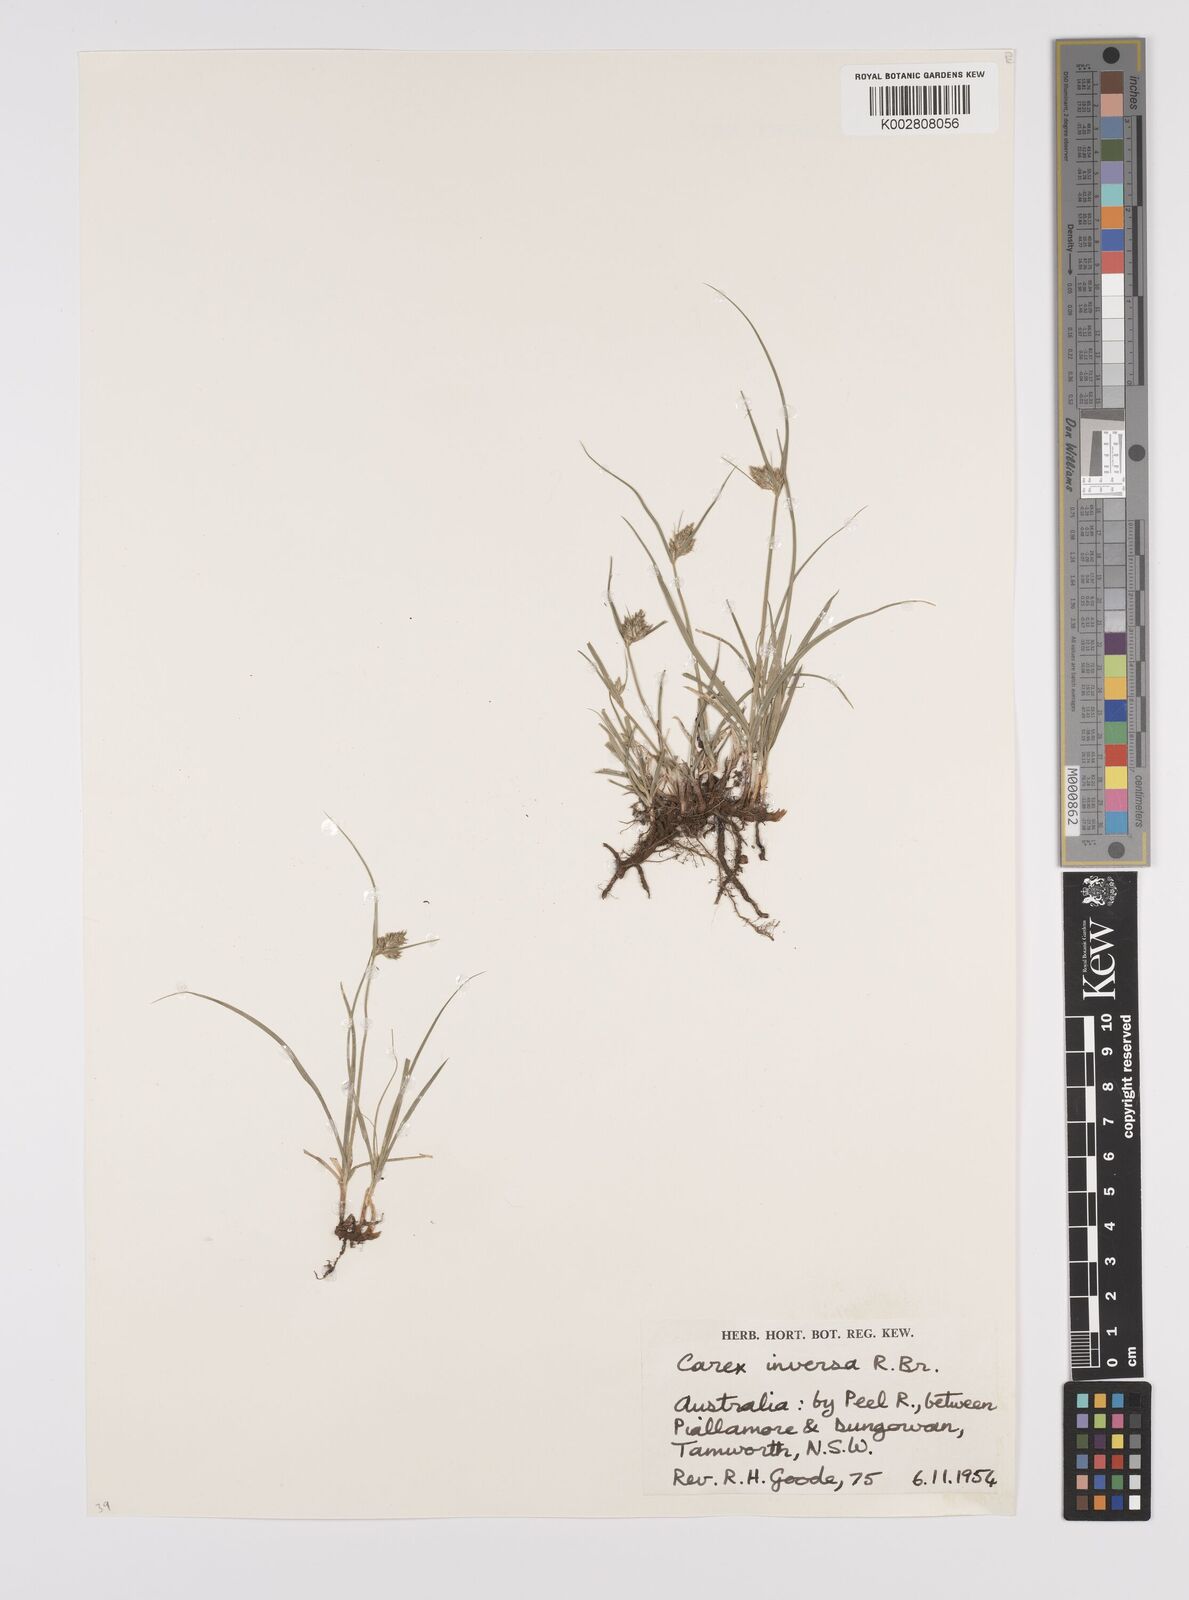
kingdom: Plantae
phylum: Tracheophyta
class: Liliopsida
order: Poales
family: Cyperaceae
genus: Carex
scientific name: Carex inversa
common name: Knob sedge
